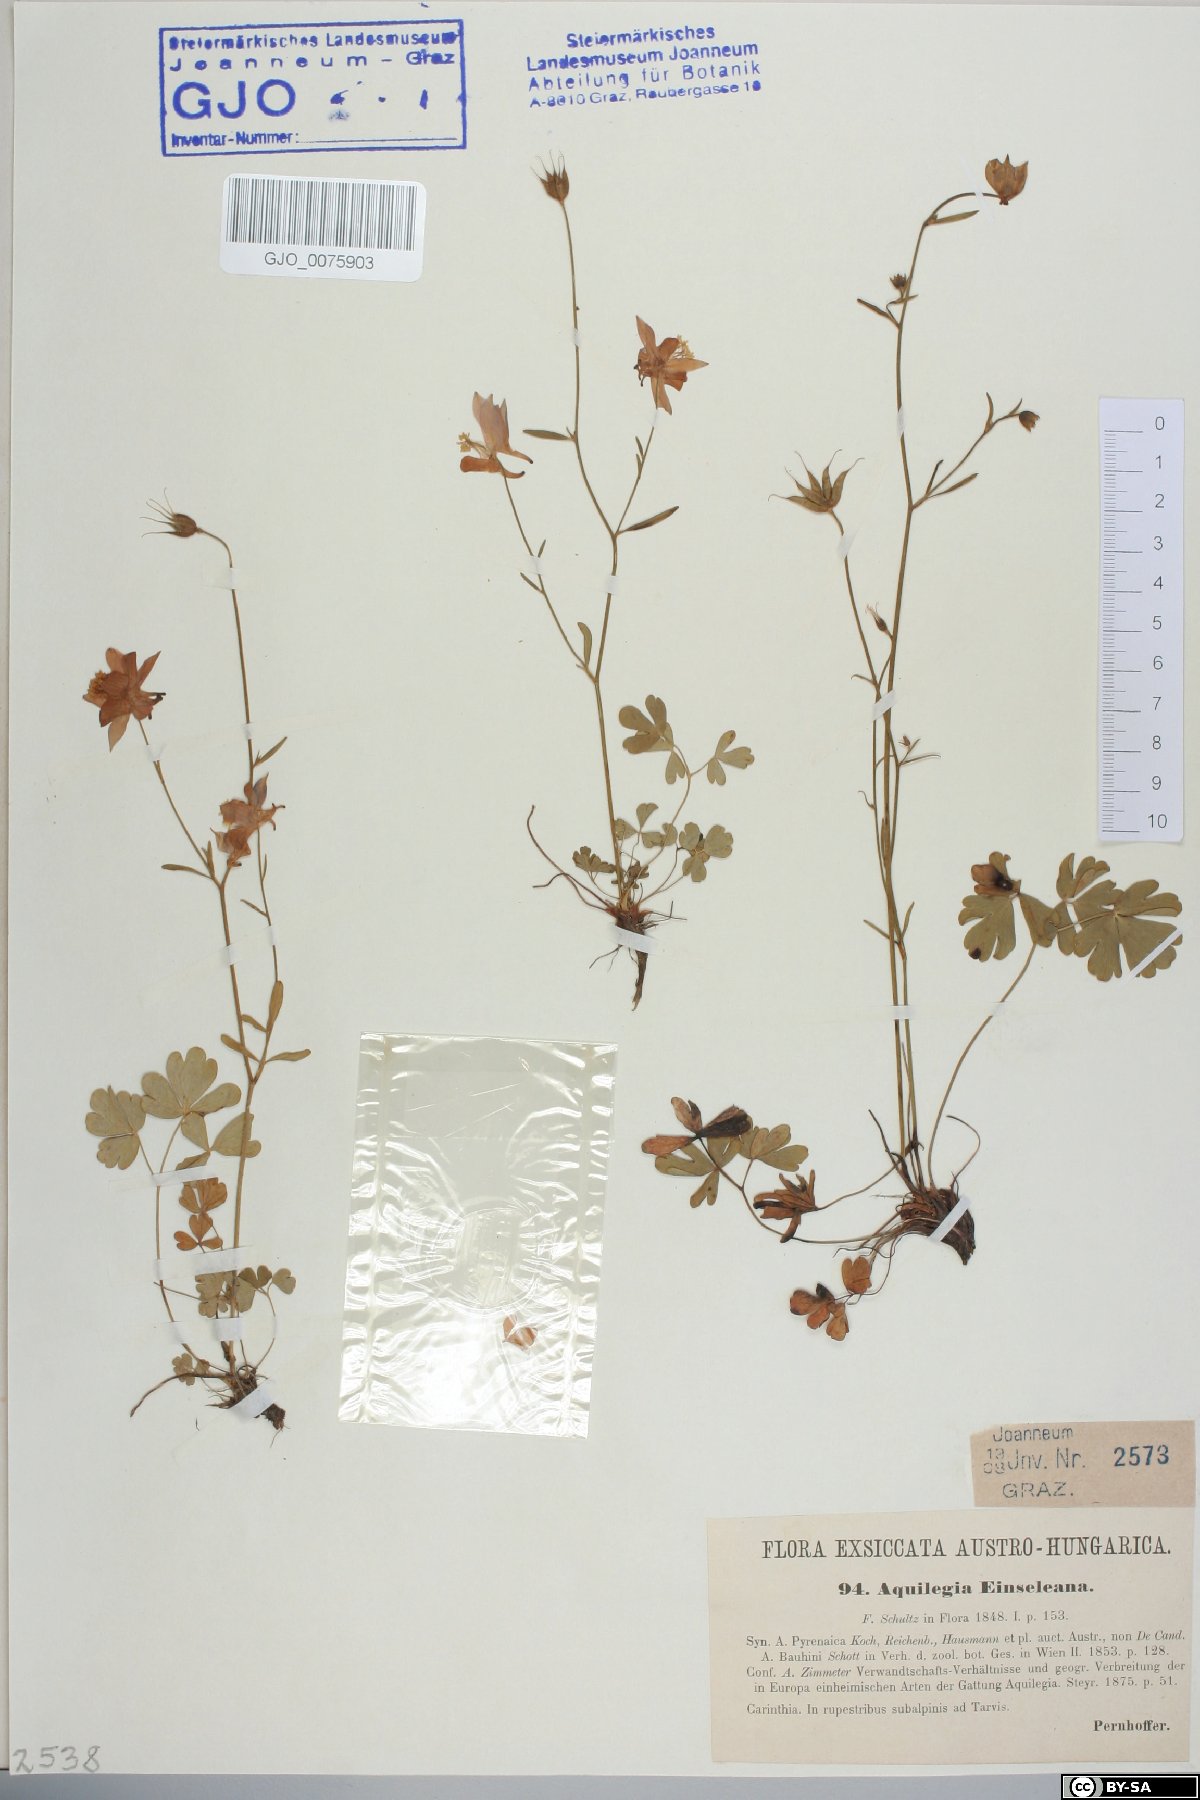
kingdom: Plantae
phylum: Tracheophyta
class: Magnoliopsida
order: Ranunculales
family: Ranunculaceae
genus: Aquilegia
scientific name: Aquilegia einseleana
